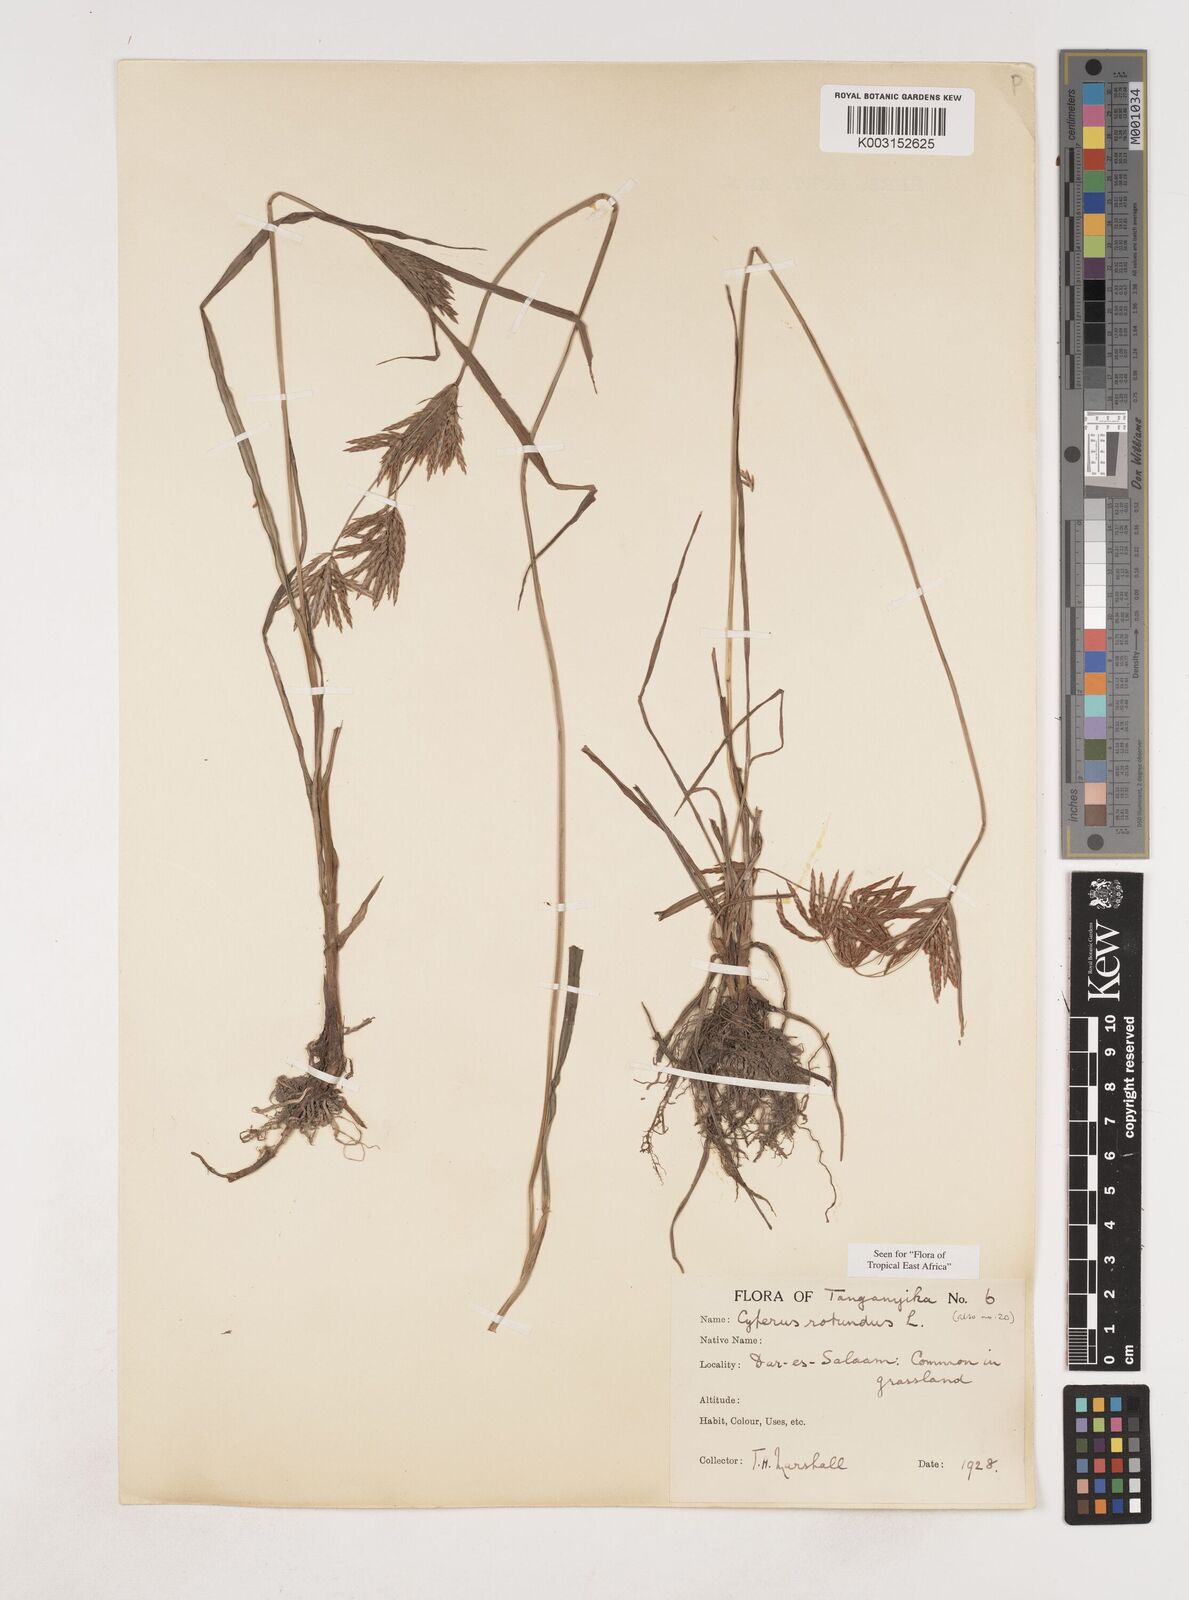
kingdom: Plantae
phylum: Tracheophyta
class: Liliopsida
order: Poales
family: Cyperaceae
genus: Cyperus
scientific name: Cyperus rotundus
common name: Nutgrass
